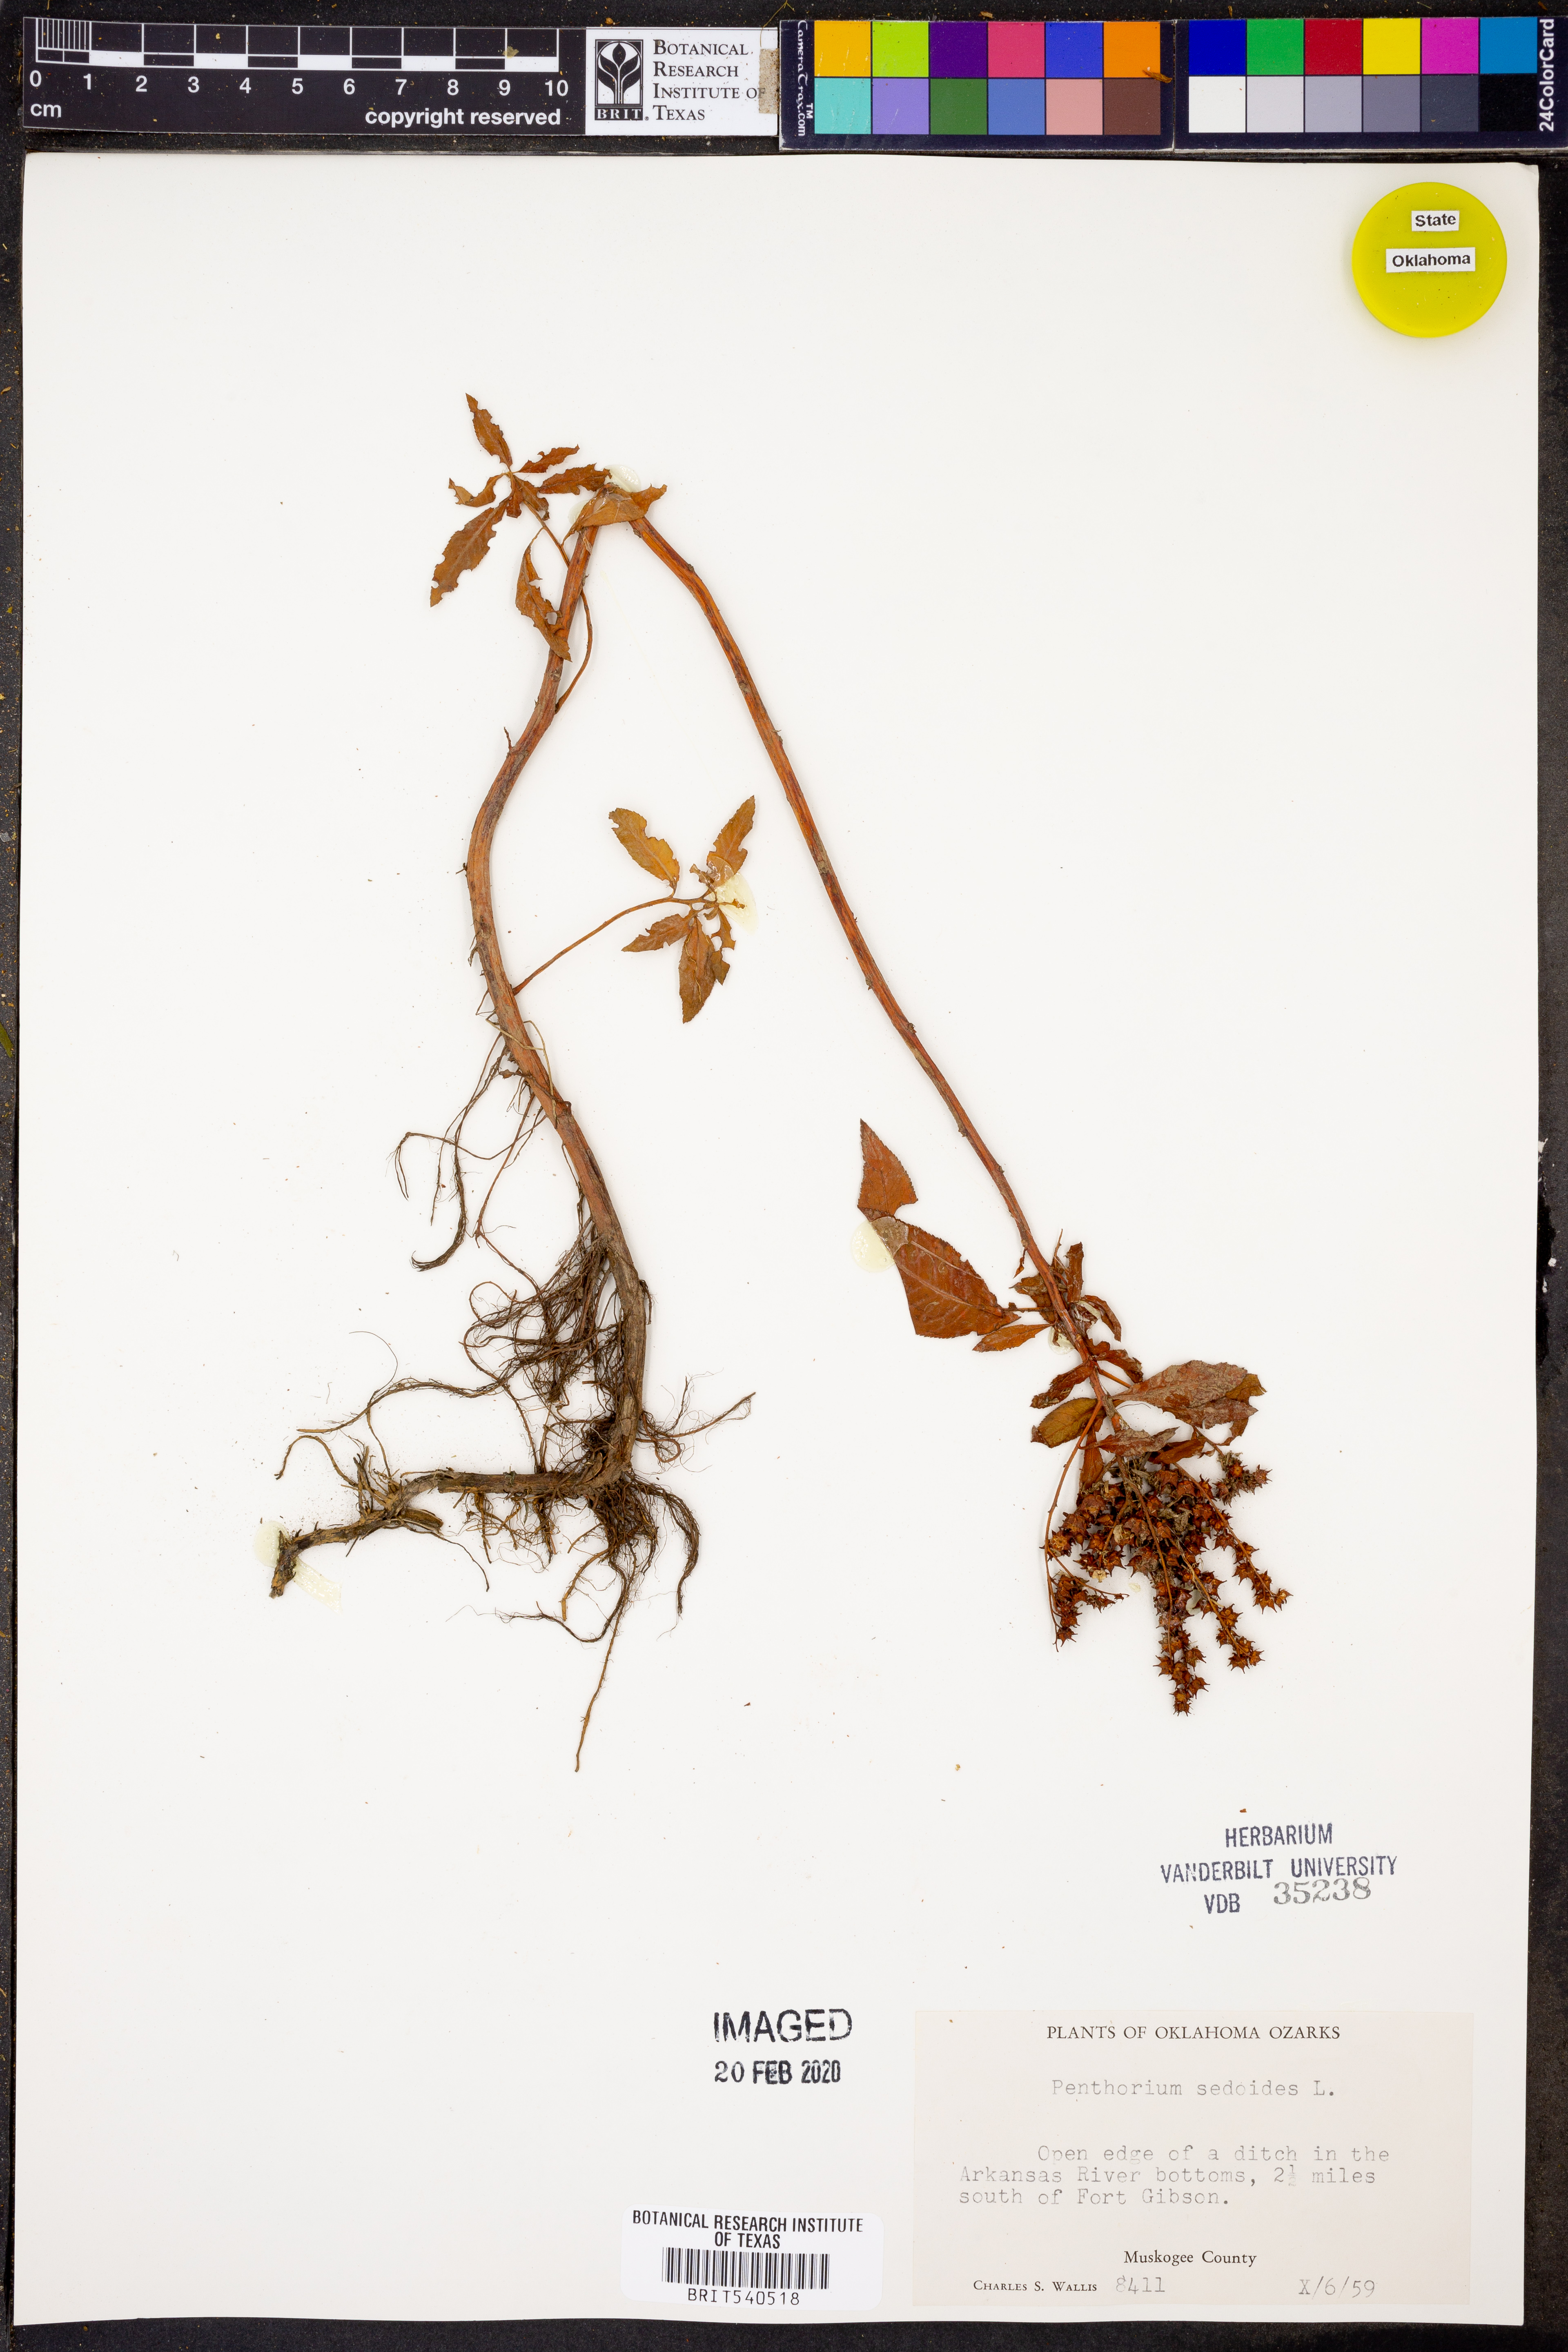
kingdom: Plantae
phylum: Tracheophyta
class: Magnoliopsida
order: Saxifragales
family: Penthoraceae
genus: Penthorum
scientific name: Penthorum sedoides
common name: Ditch stonecrop
